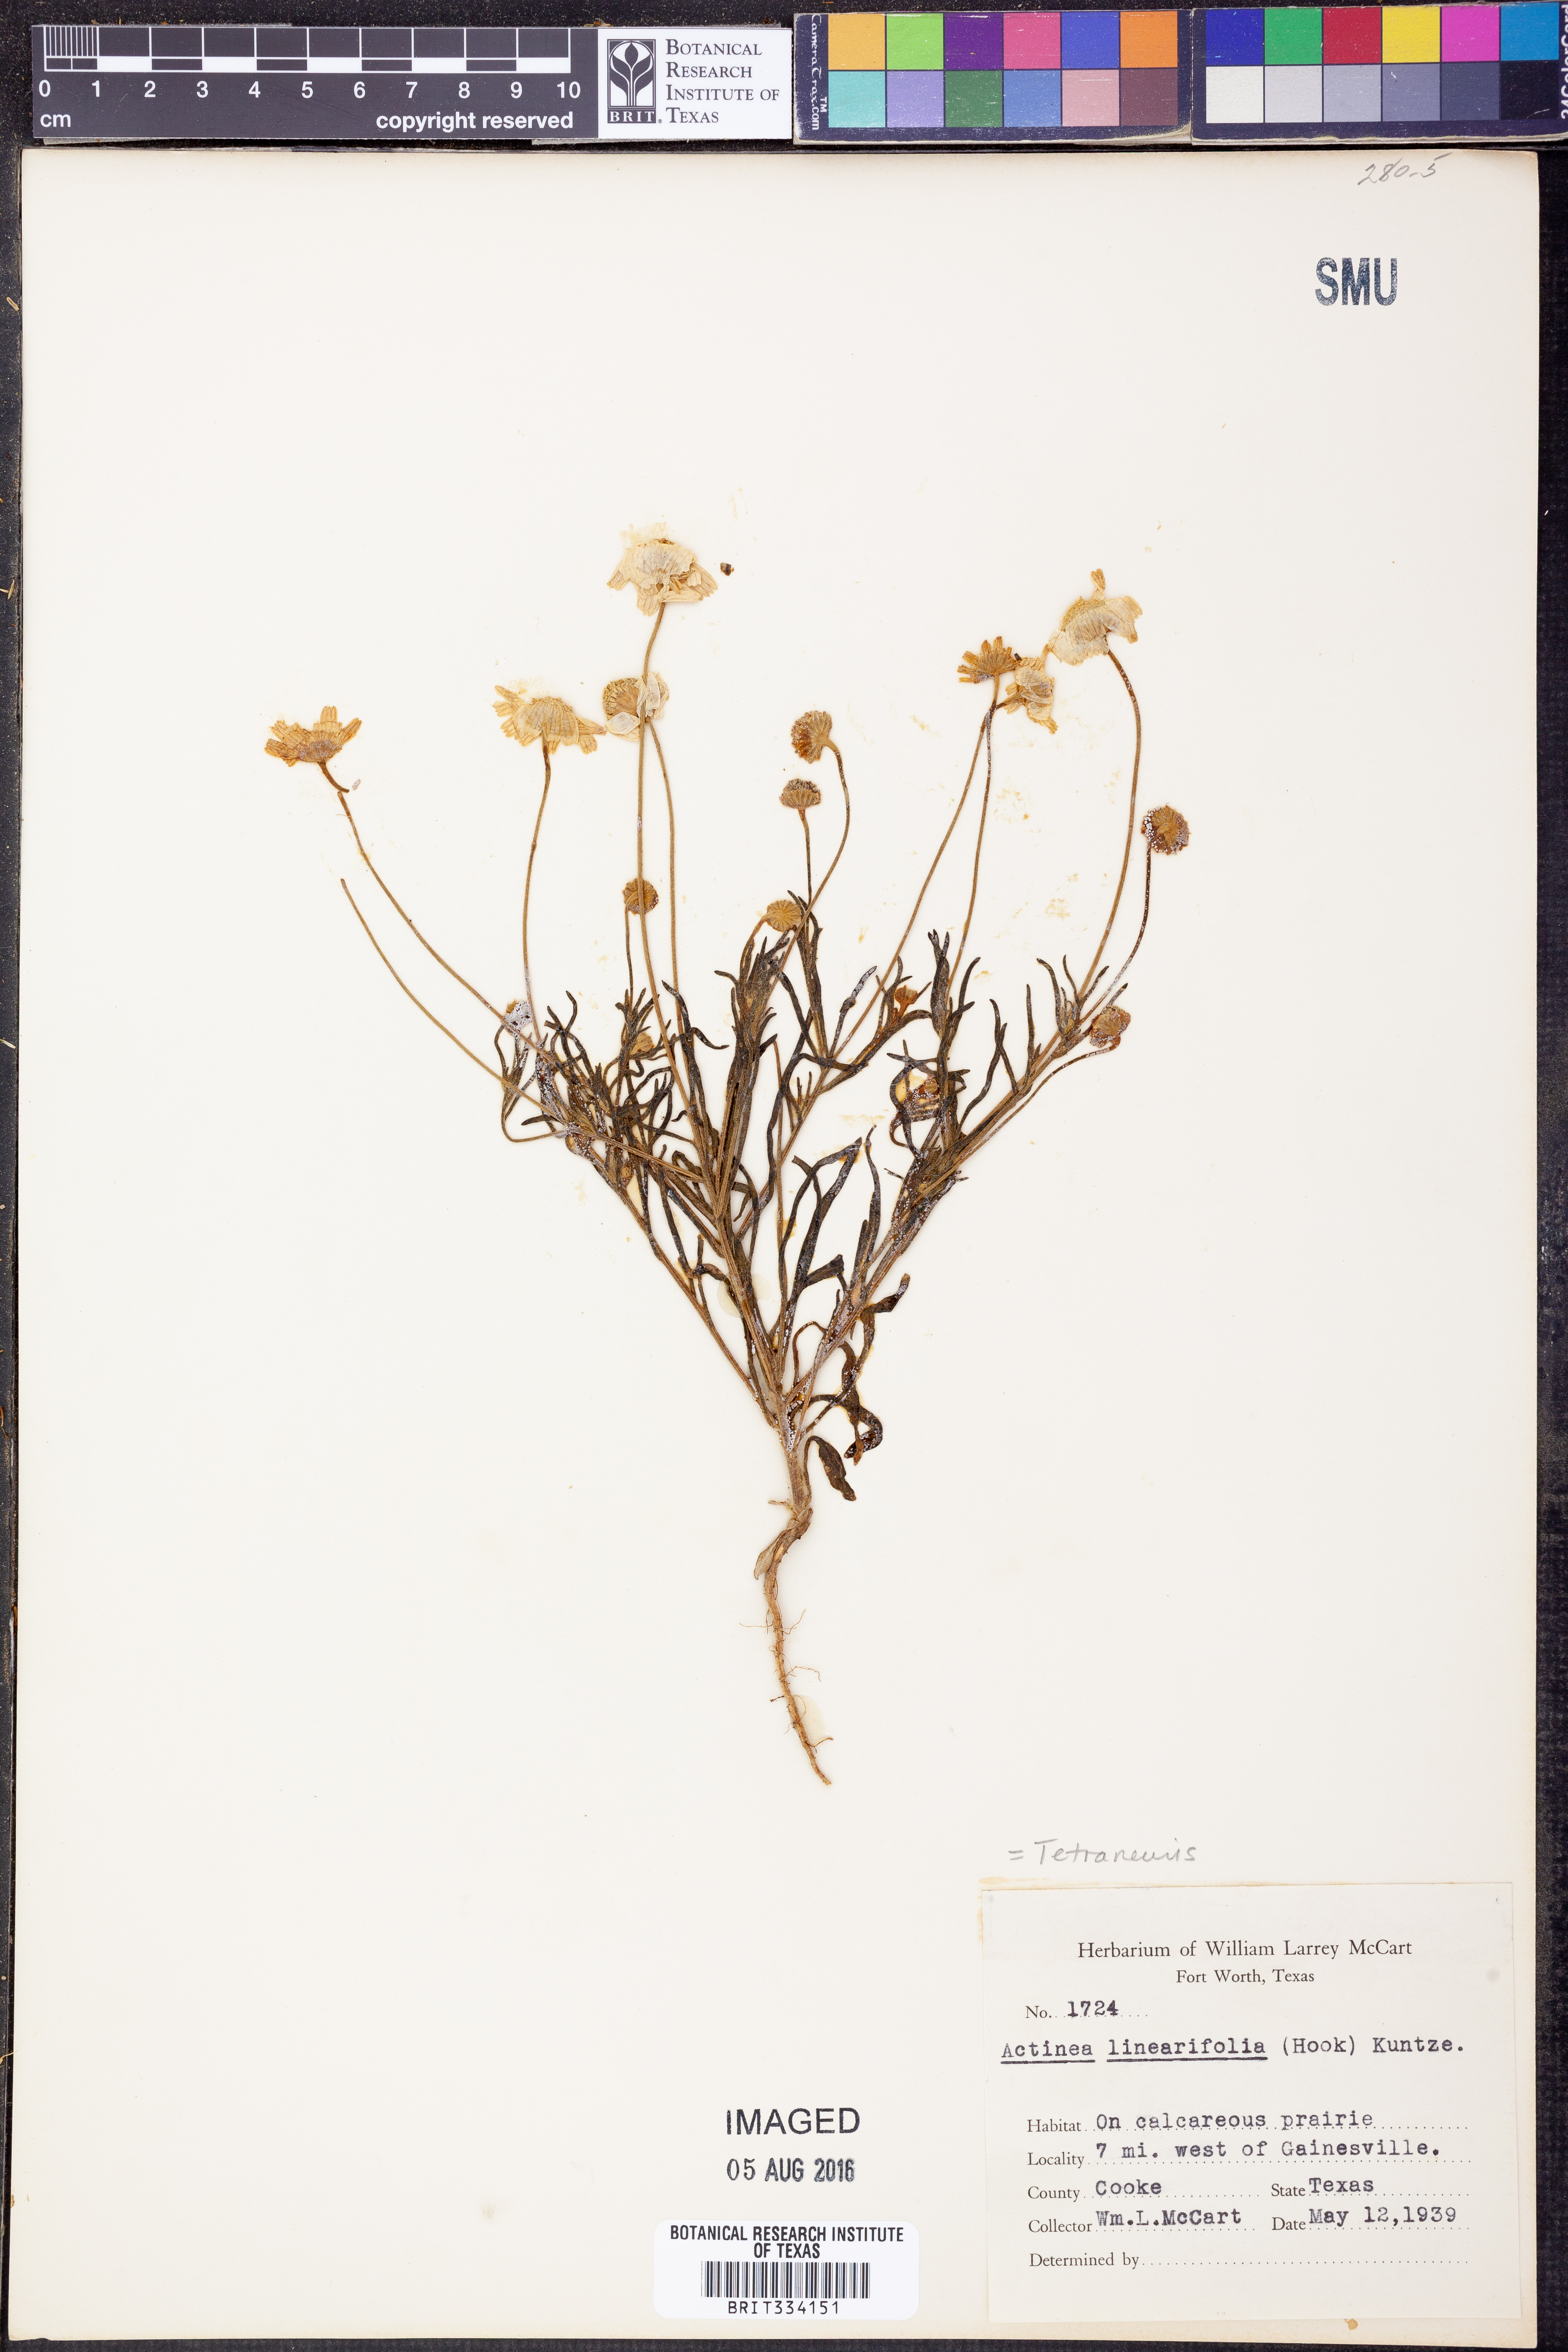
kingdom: Plantae
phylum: Tracheophyta
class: Magnoliopsida
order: Asterales
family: Asteraceae
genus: Tetraneuris
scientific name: Tetraneuris linearifolia
